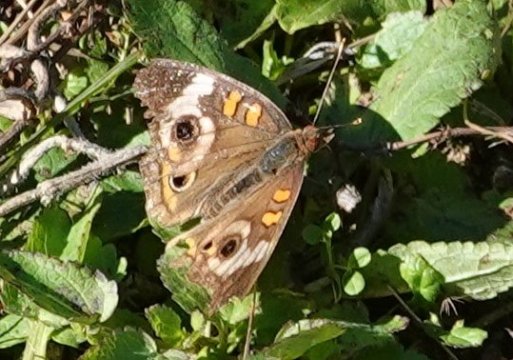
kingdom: Animalia
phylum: Arthropoda
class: Insecta
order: Lepidoptera
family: Nymphalidae
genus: Junonia
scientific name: Junonia coenia
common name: Common Buckeye
